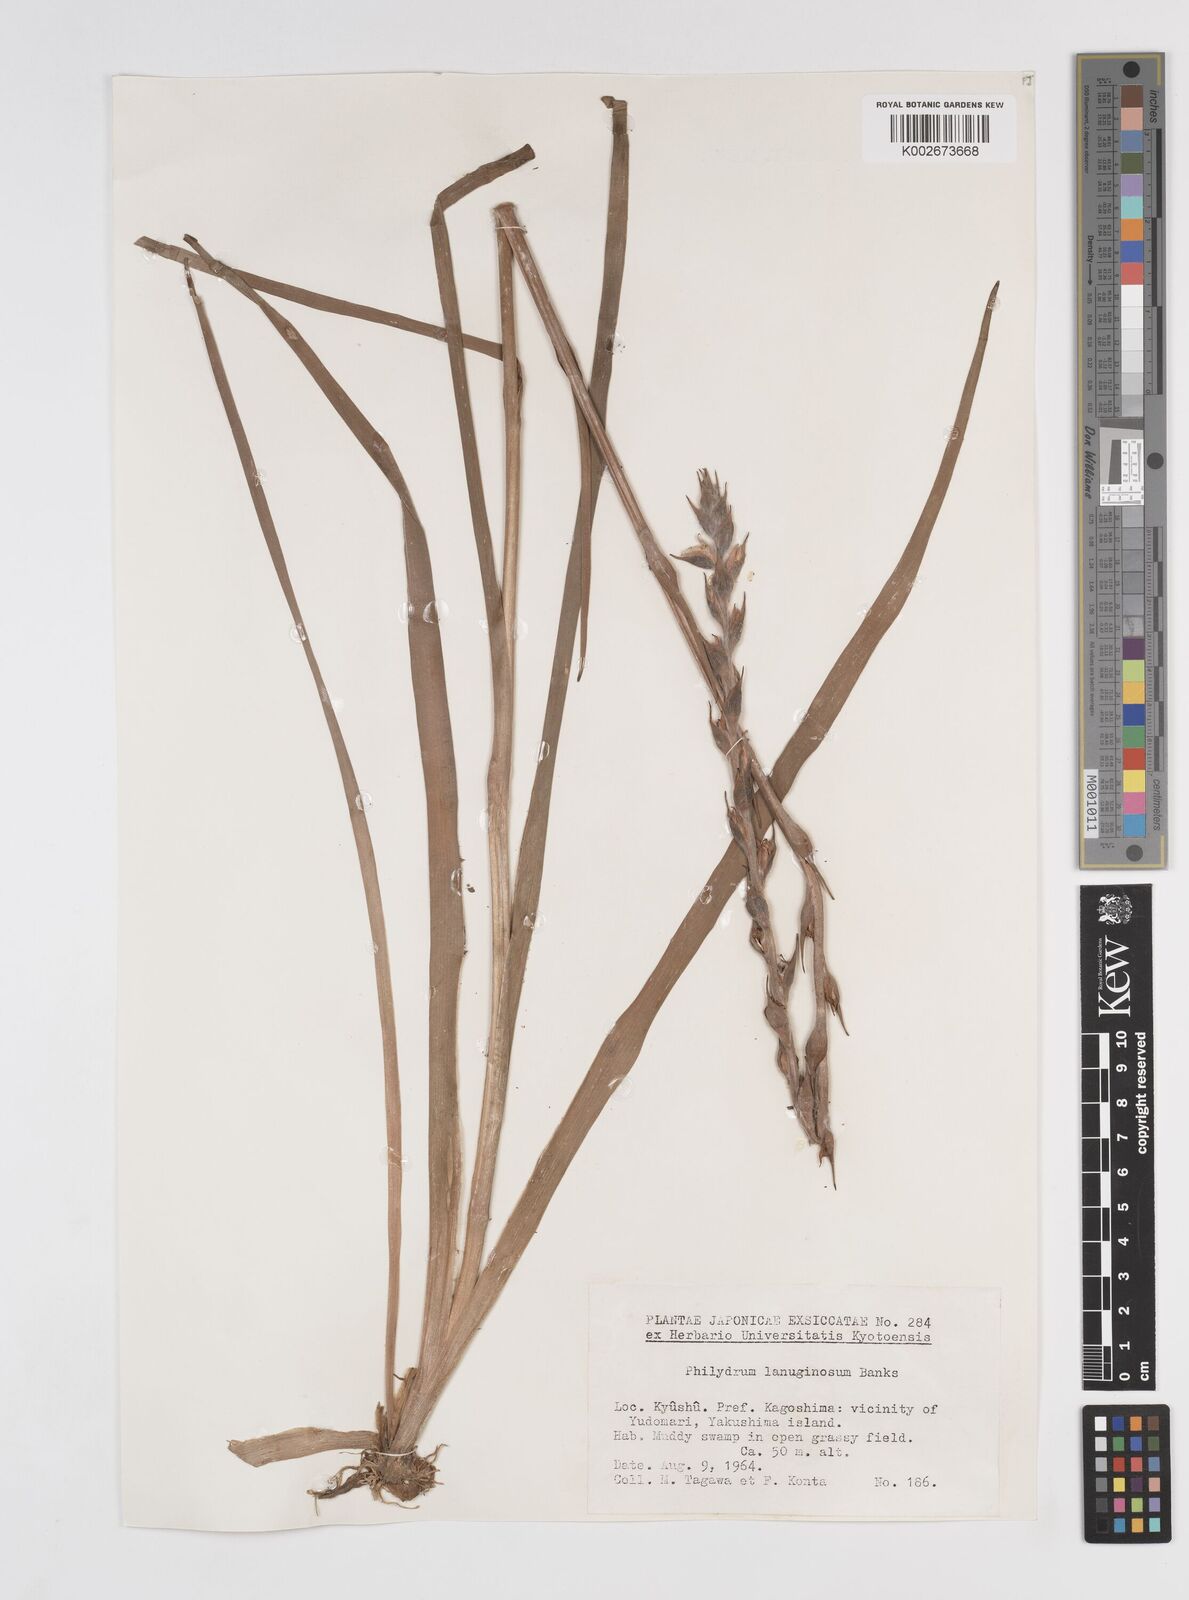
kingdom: Plantae
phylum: Tracheophyta
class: Liliopsida
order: Commelinales
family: Philydraceae
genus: Philydrum
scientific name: Philydrum lanuginosum
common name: Woolly frog's mouth
